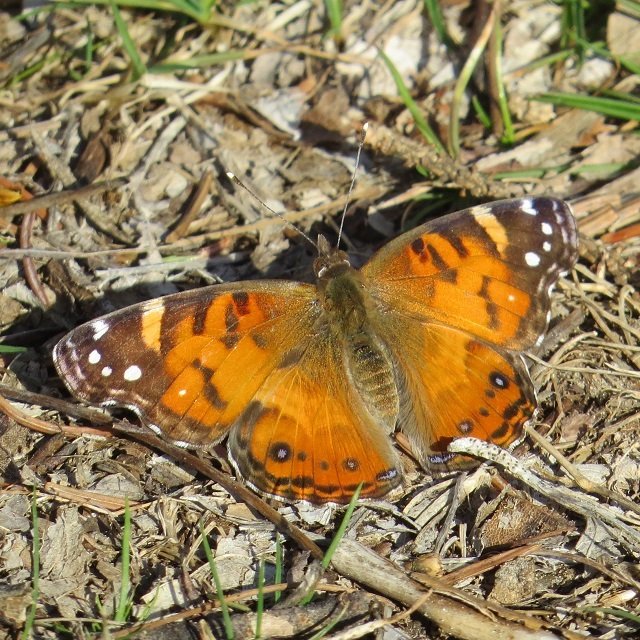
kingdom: Animalia
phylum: Arthropoda
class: Insecta
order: Lepidoptera
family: Nymphalidae
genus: Vanessa
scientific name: Vanessa virginiensis
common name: American Lady
